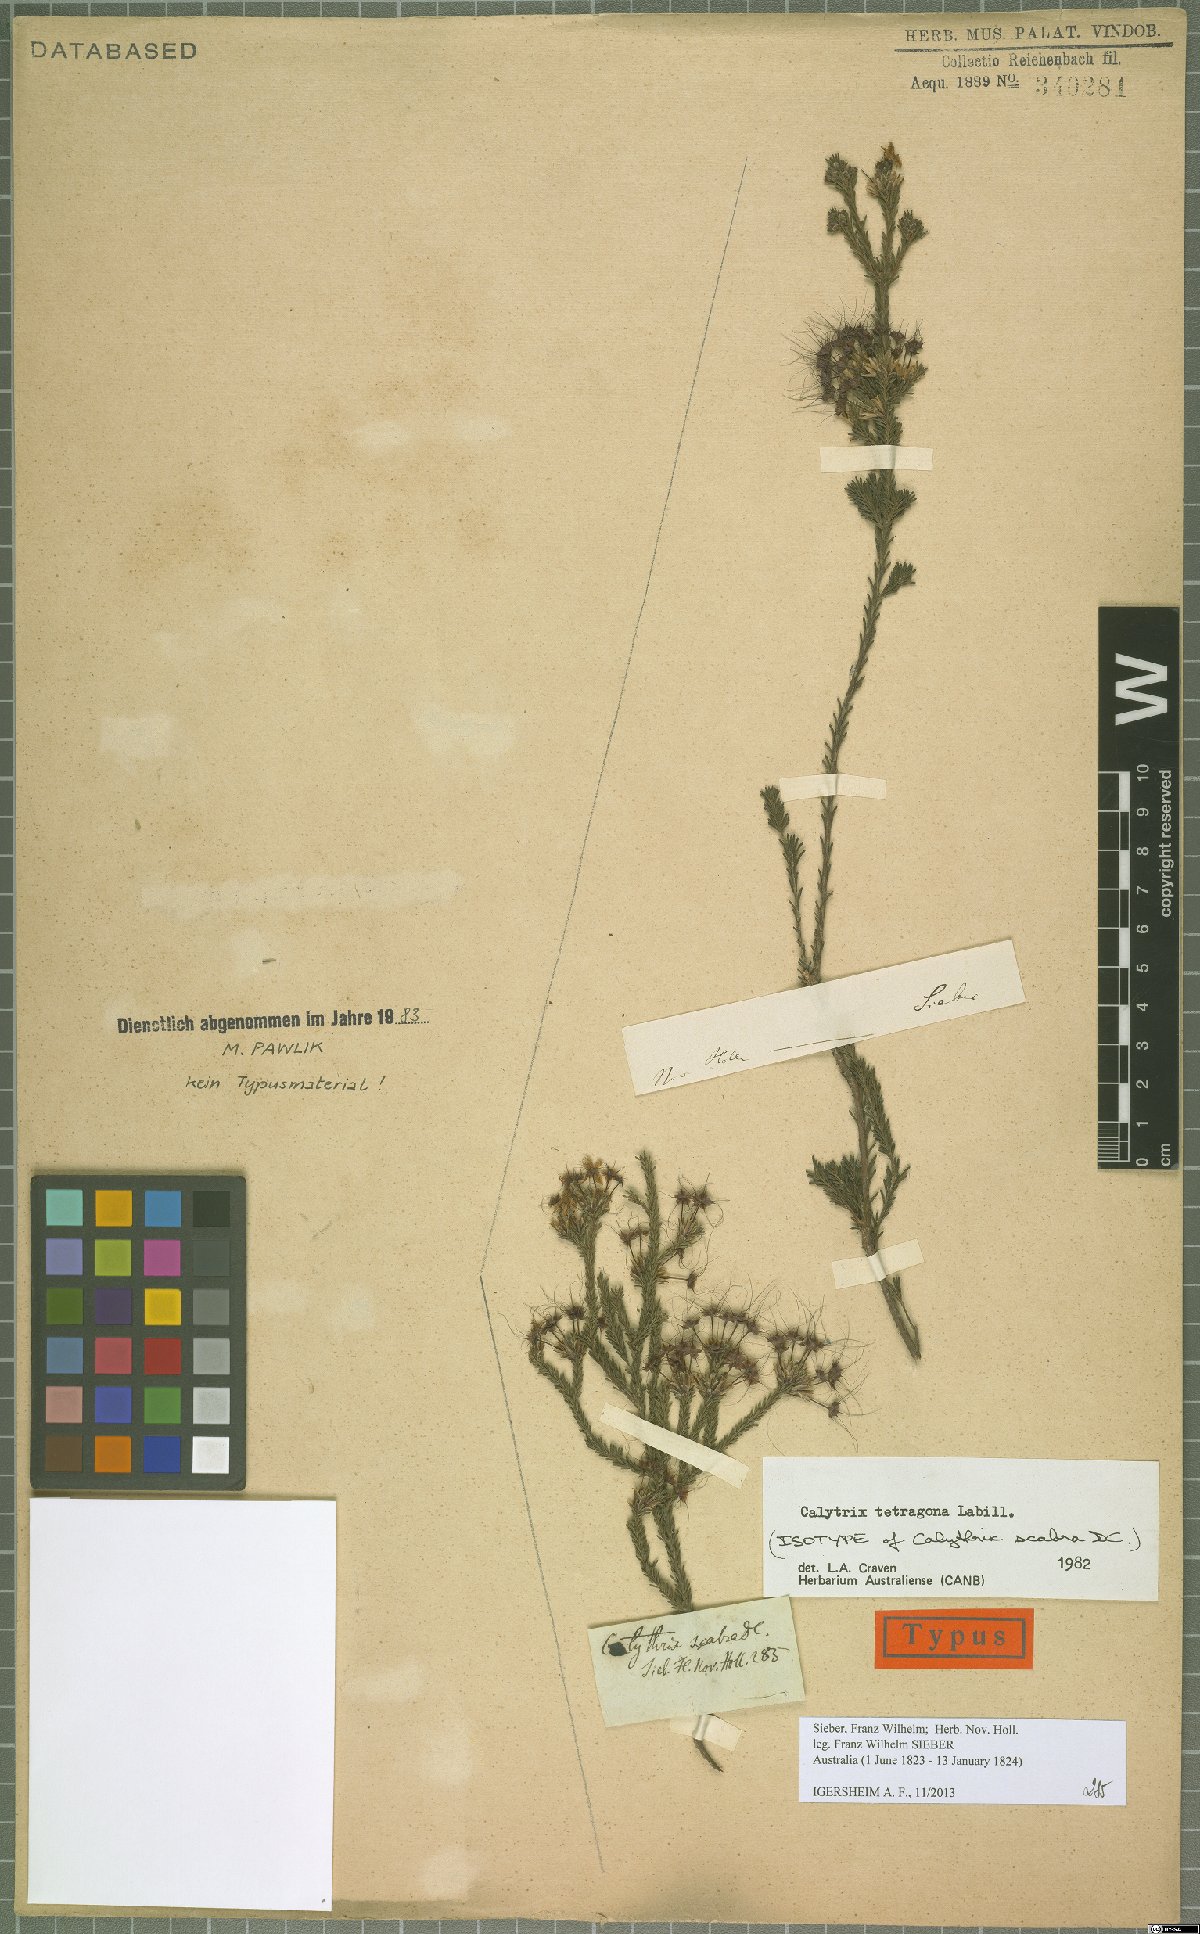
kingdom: Plantae
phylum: Tracheophyta
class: Magnoliopsida
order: Myrtales
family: Myrtaceae
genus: Calytrix
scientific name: Calytrix tetragona
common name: Common fringe myrtle
